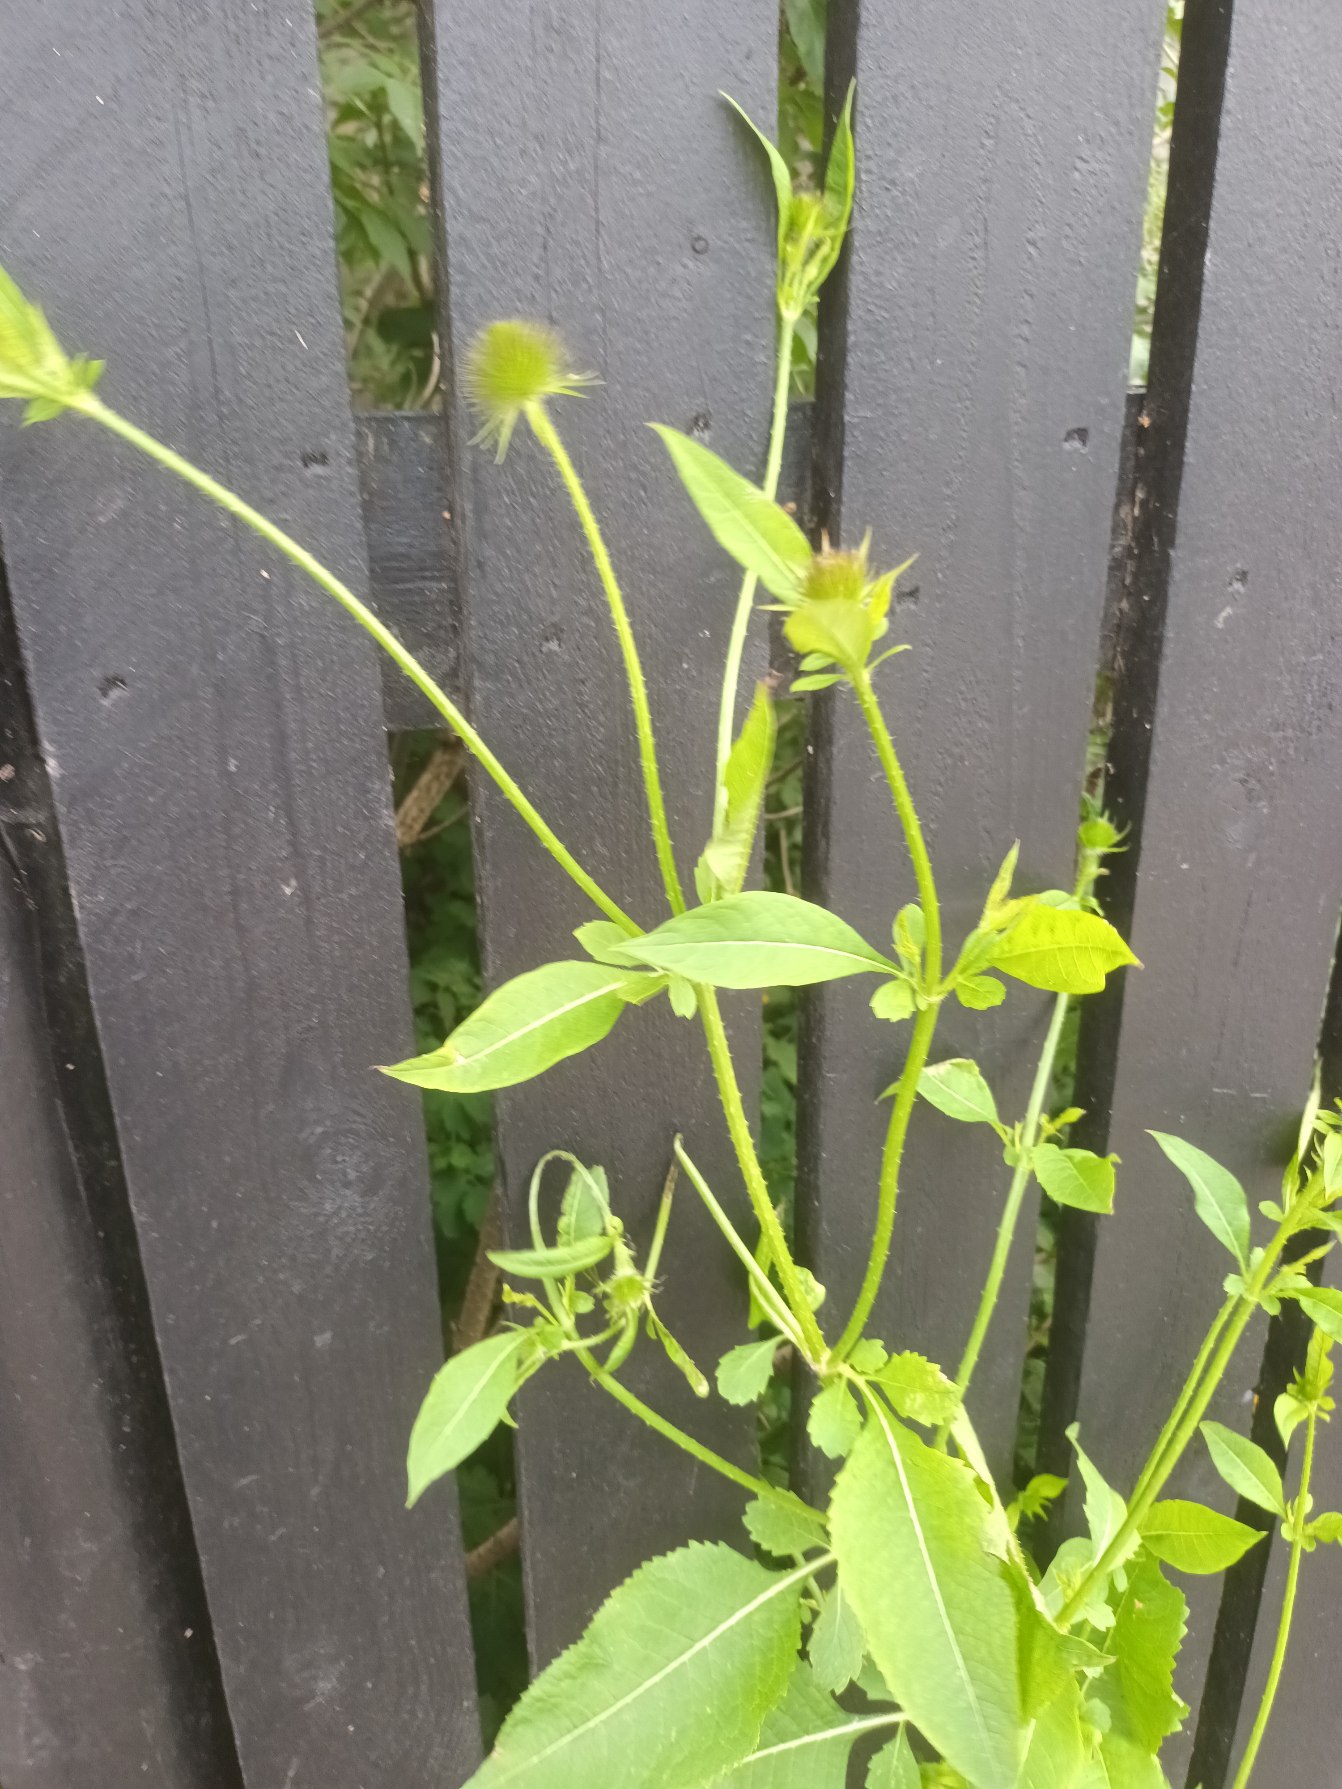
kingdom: Plantae
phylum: Tracheophyta
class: Magnoliopsida
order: Dipsacales
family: Caprifoliaceae
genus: Dipsacus
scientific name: Dipsacus strigosus
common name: Pindsvin-kartebolle
